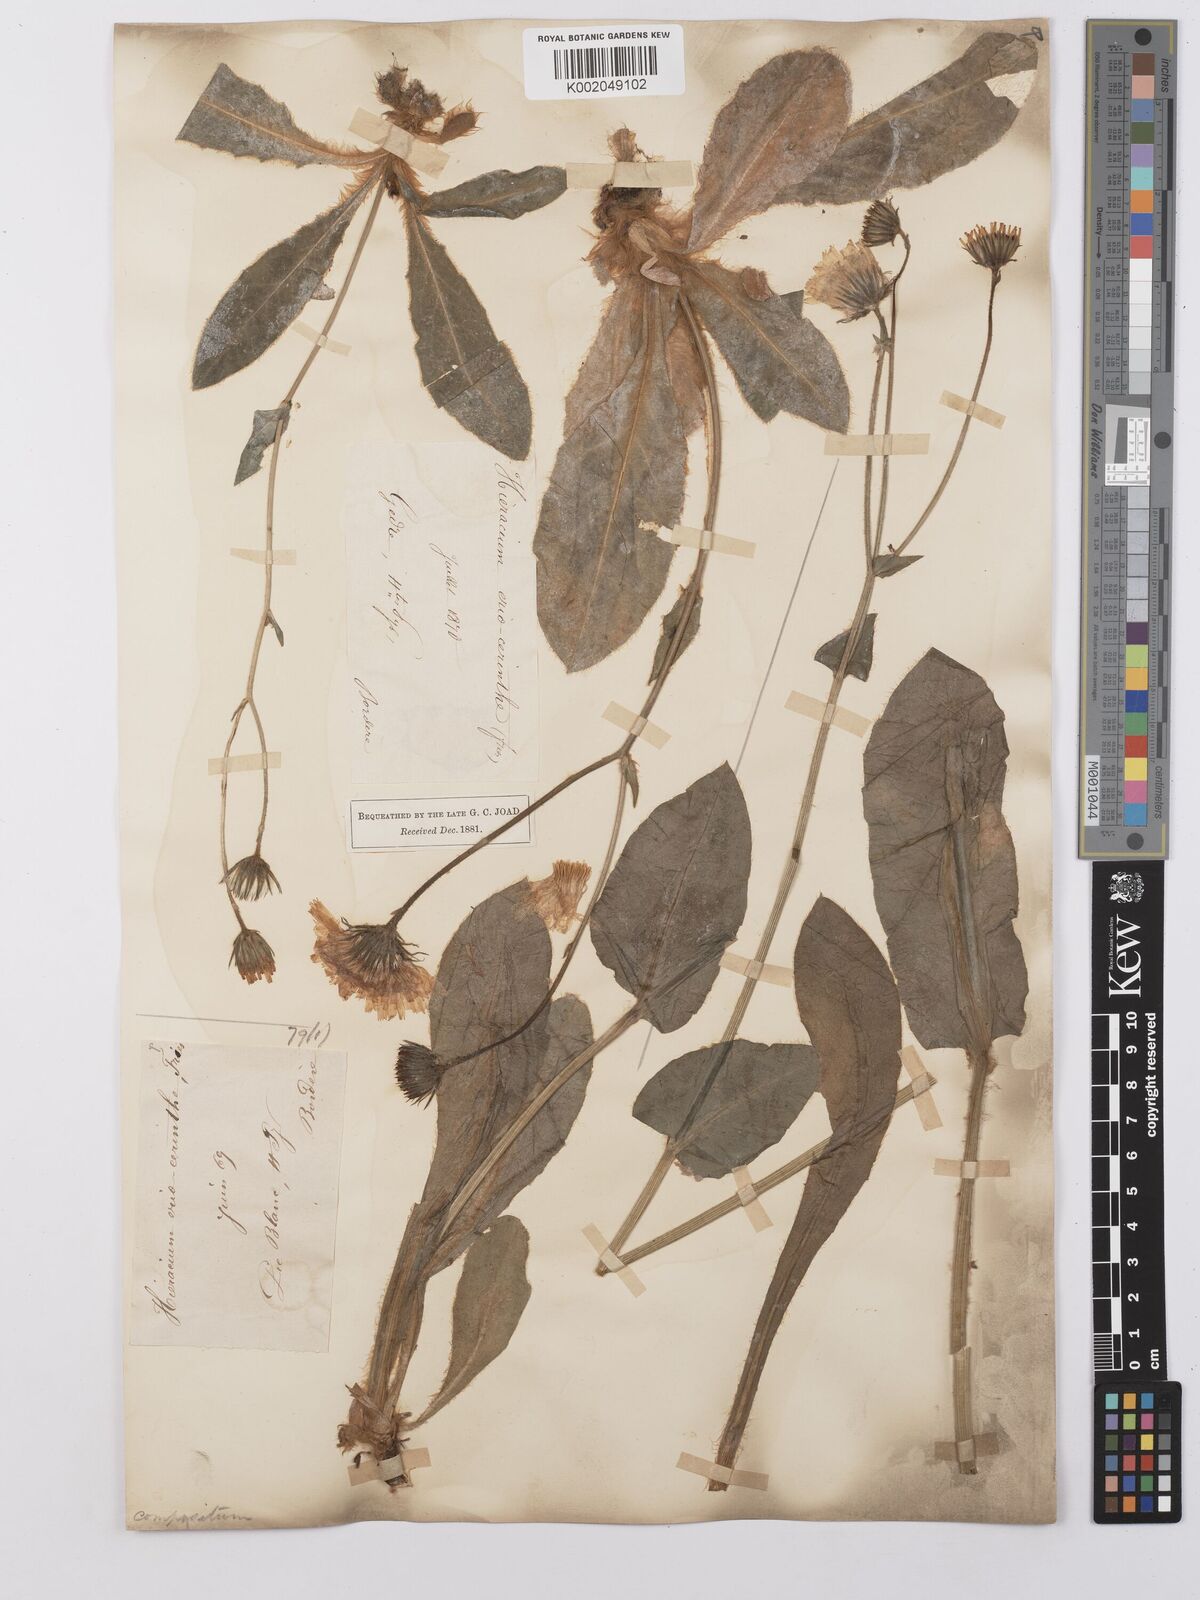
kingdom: Plantae
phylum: Tracheophyta
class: Magnoliopsida
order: Asterales
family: Asteraceae
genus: Hieracium
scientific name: Hieracium eriocerinthe
